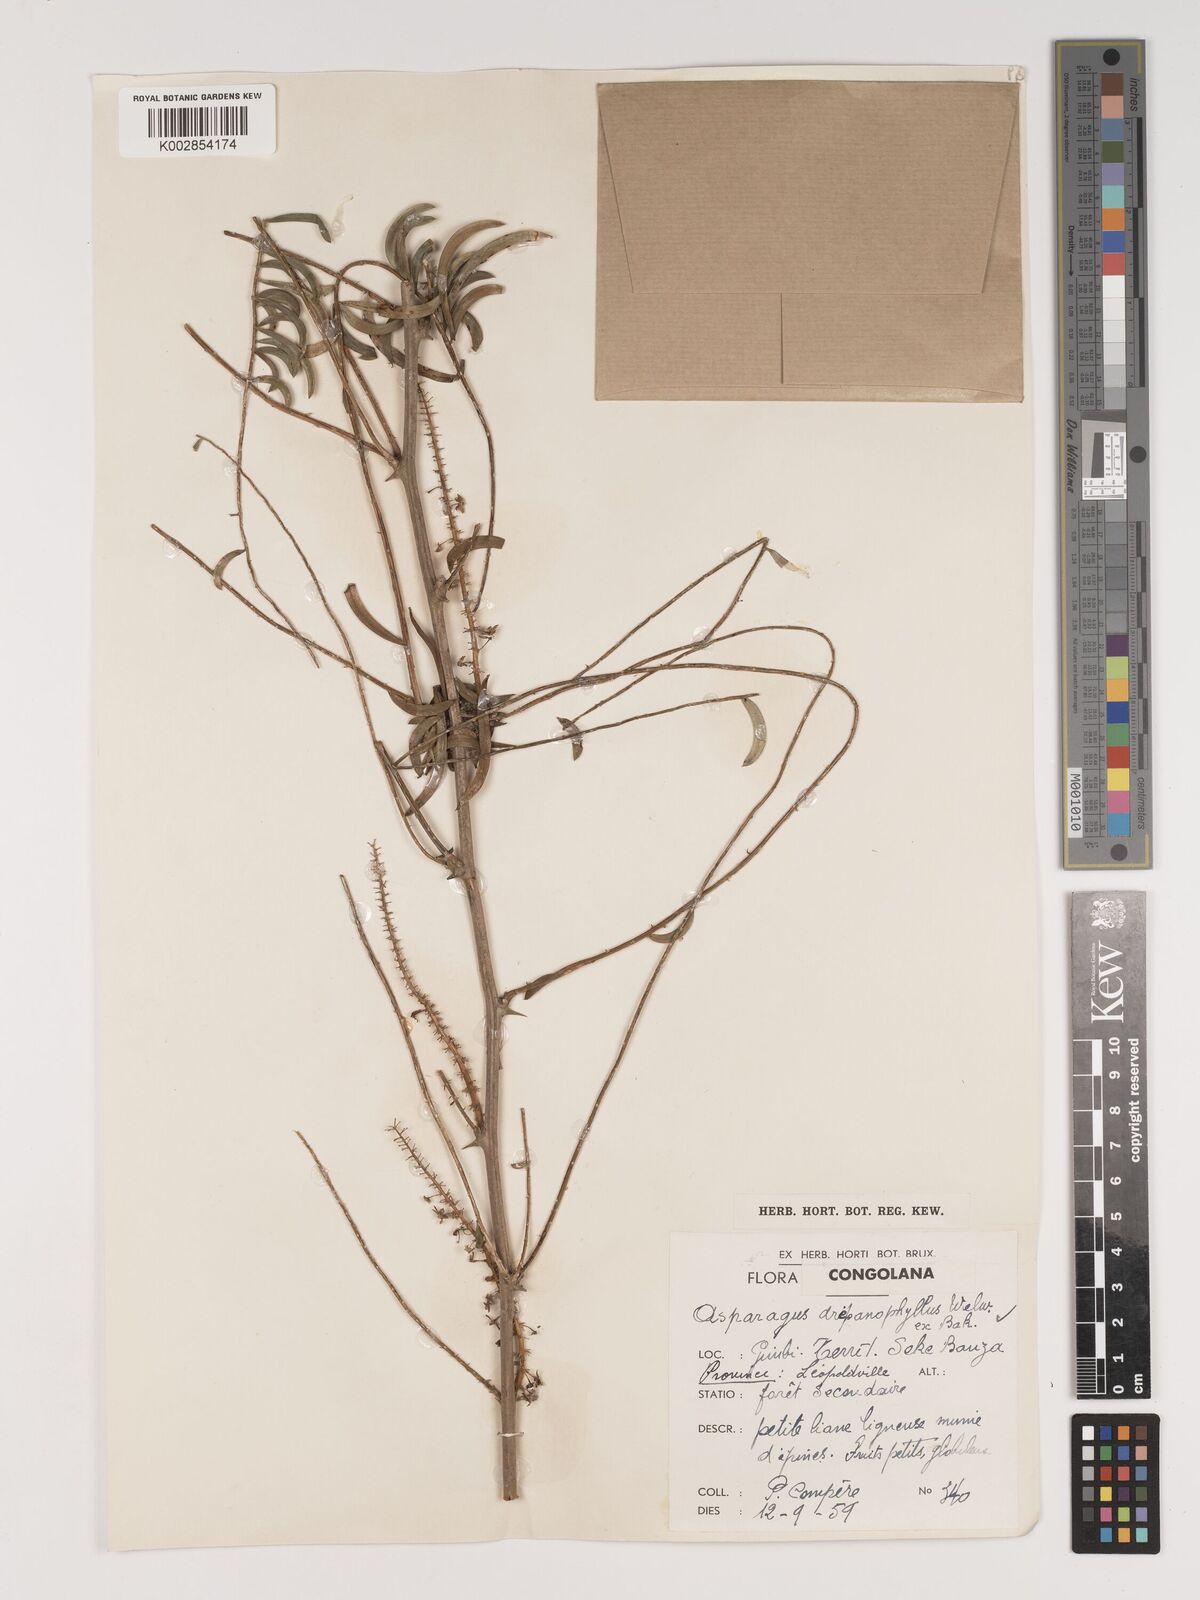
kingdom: Plantae
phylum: Tracheophyta
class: Liliopsida
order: Asparagales
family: Asparagaceae
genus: Asparagus
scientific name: Asparagus drepanophyllus
